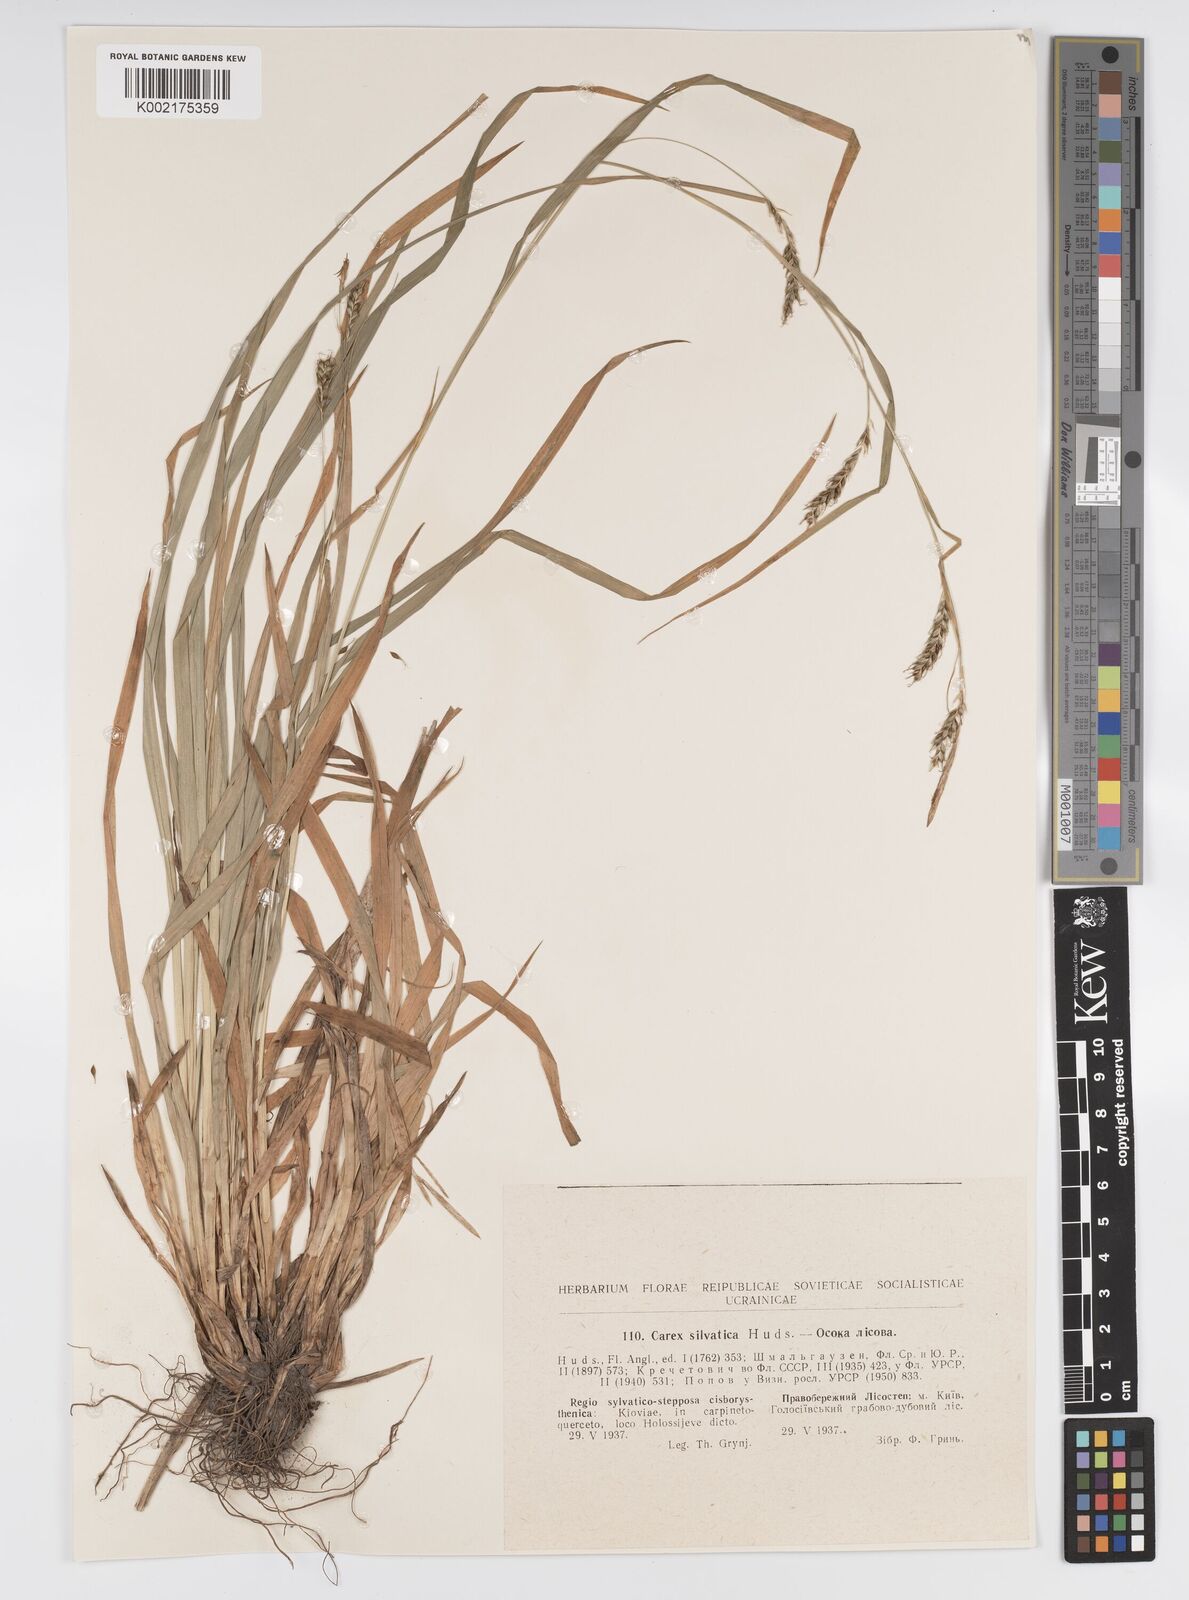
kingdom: Plantae
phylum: Tracheophyta
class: Liliopsida
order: Poales
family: Cyperaceae
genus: Carex
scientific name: Carex sylvatica
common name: Wood-sedge
